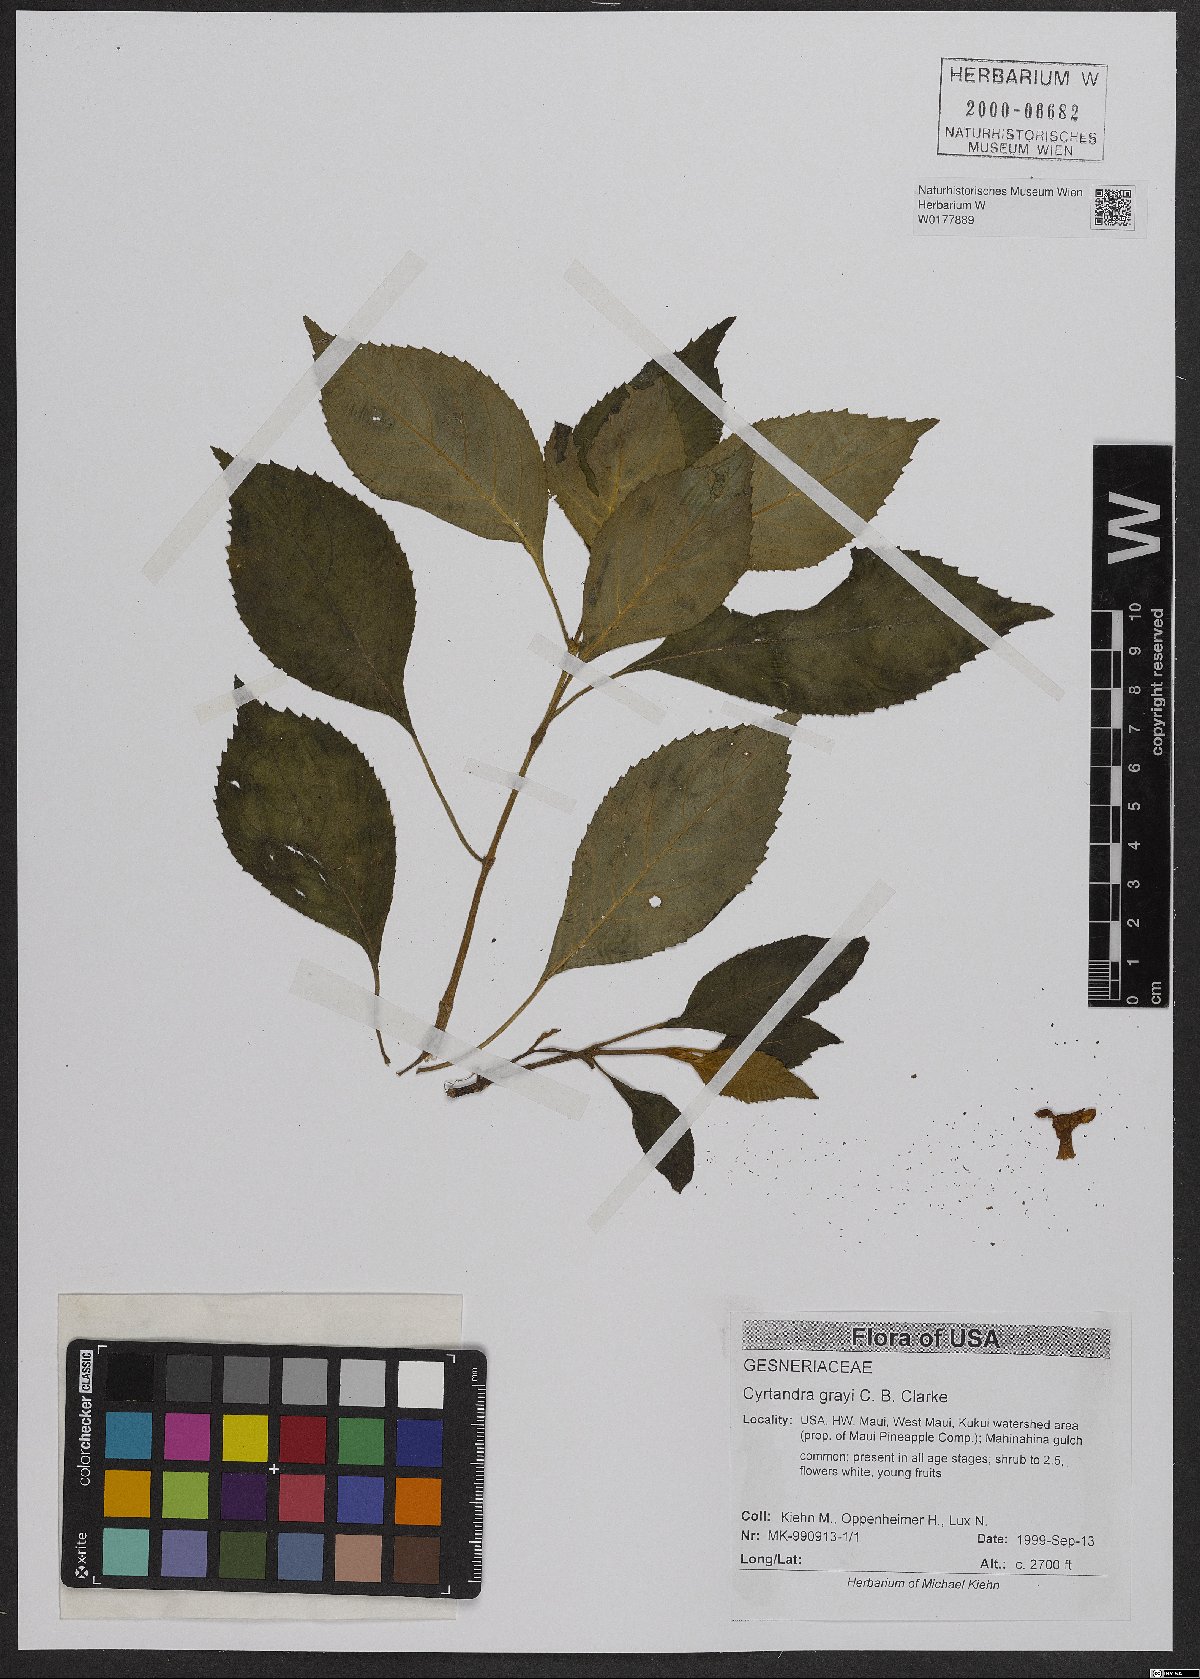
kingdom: Plantae
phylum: Tracheophyta
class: Magnoliopsida
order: Lamiales
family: Gesneriaceae
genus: Cyrtandra
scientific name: Cyrtandra grayi
